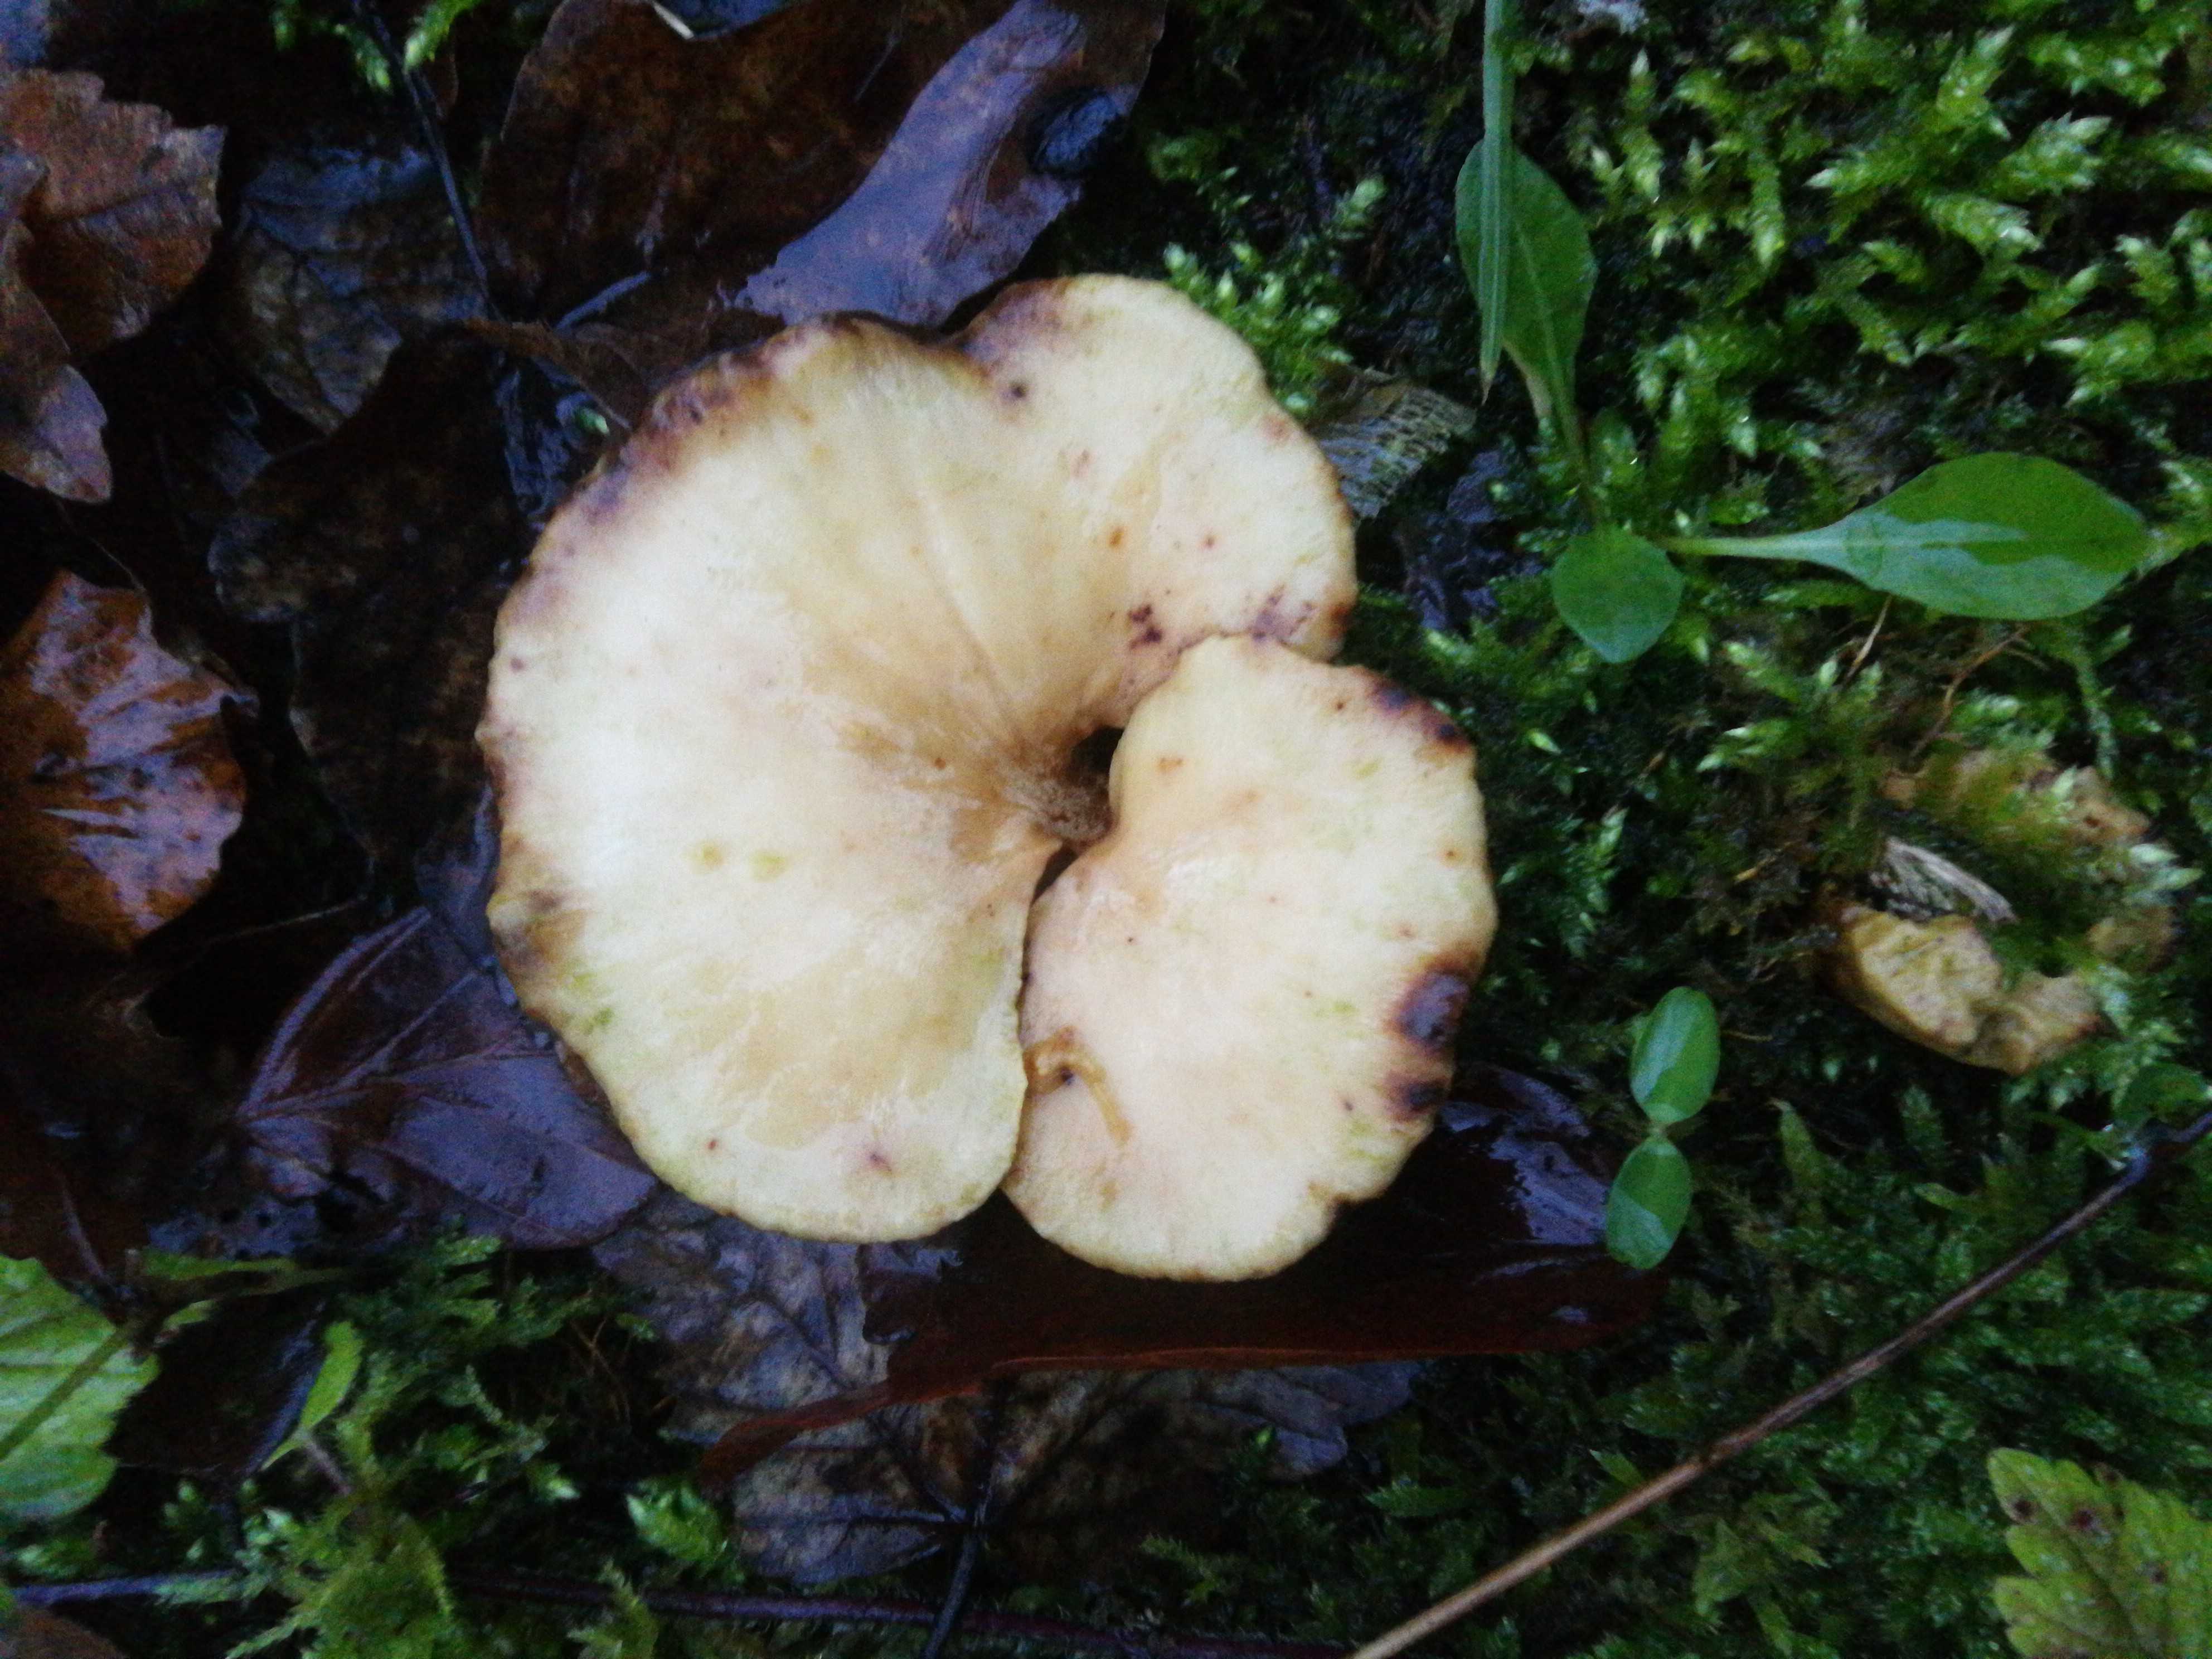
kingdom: Fungi
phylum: Basidiomycota
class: Agaricomycetes
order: Polyporales
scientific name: Polyporales
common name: poresvampordenen
